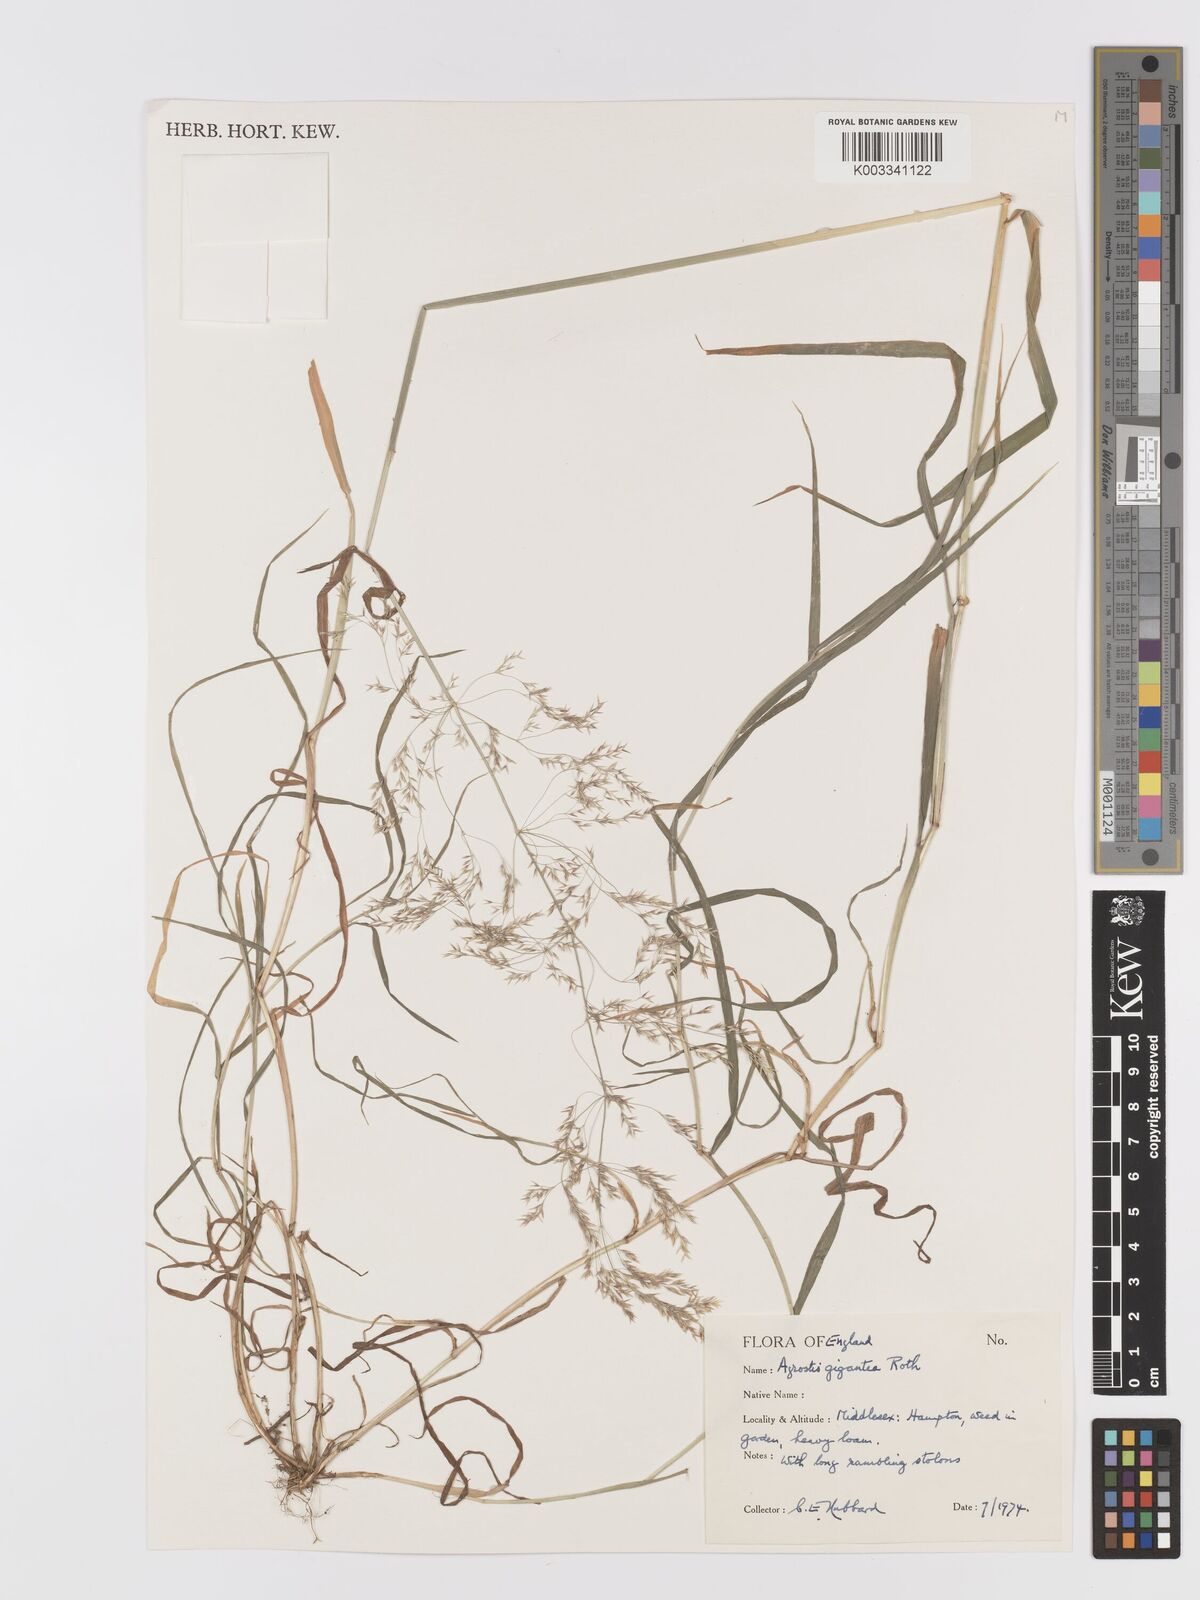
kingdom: Plantae
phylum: Tracheophyta
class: Liliopsida
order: Poales
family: Poaceae
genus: Agrostis
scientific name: Agrostis gigantea
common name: Black bent
